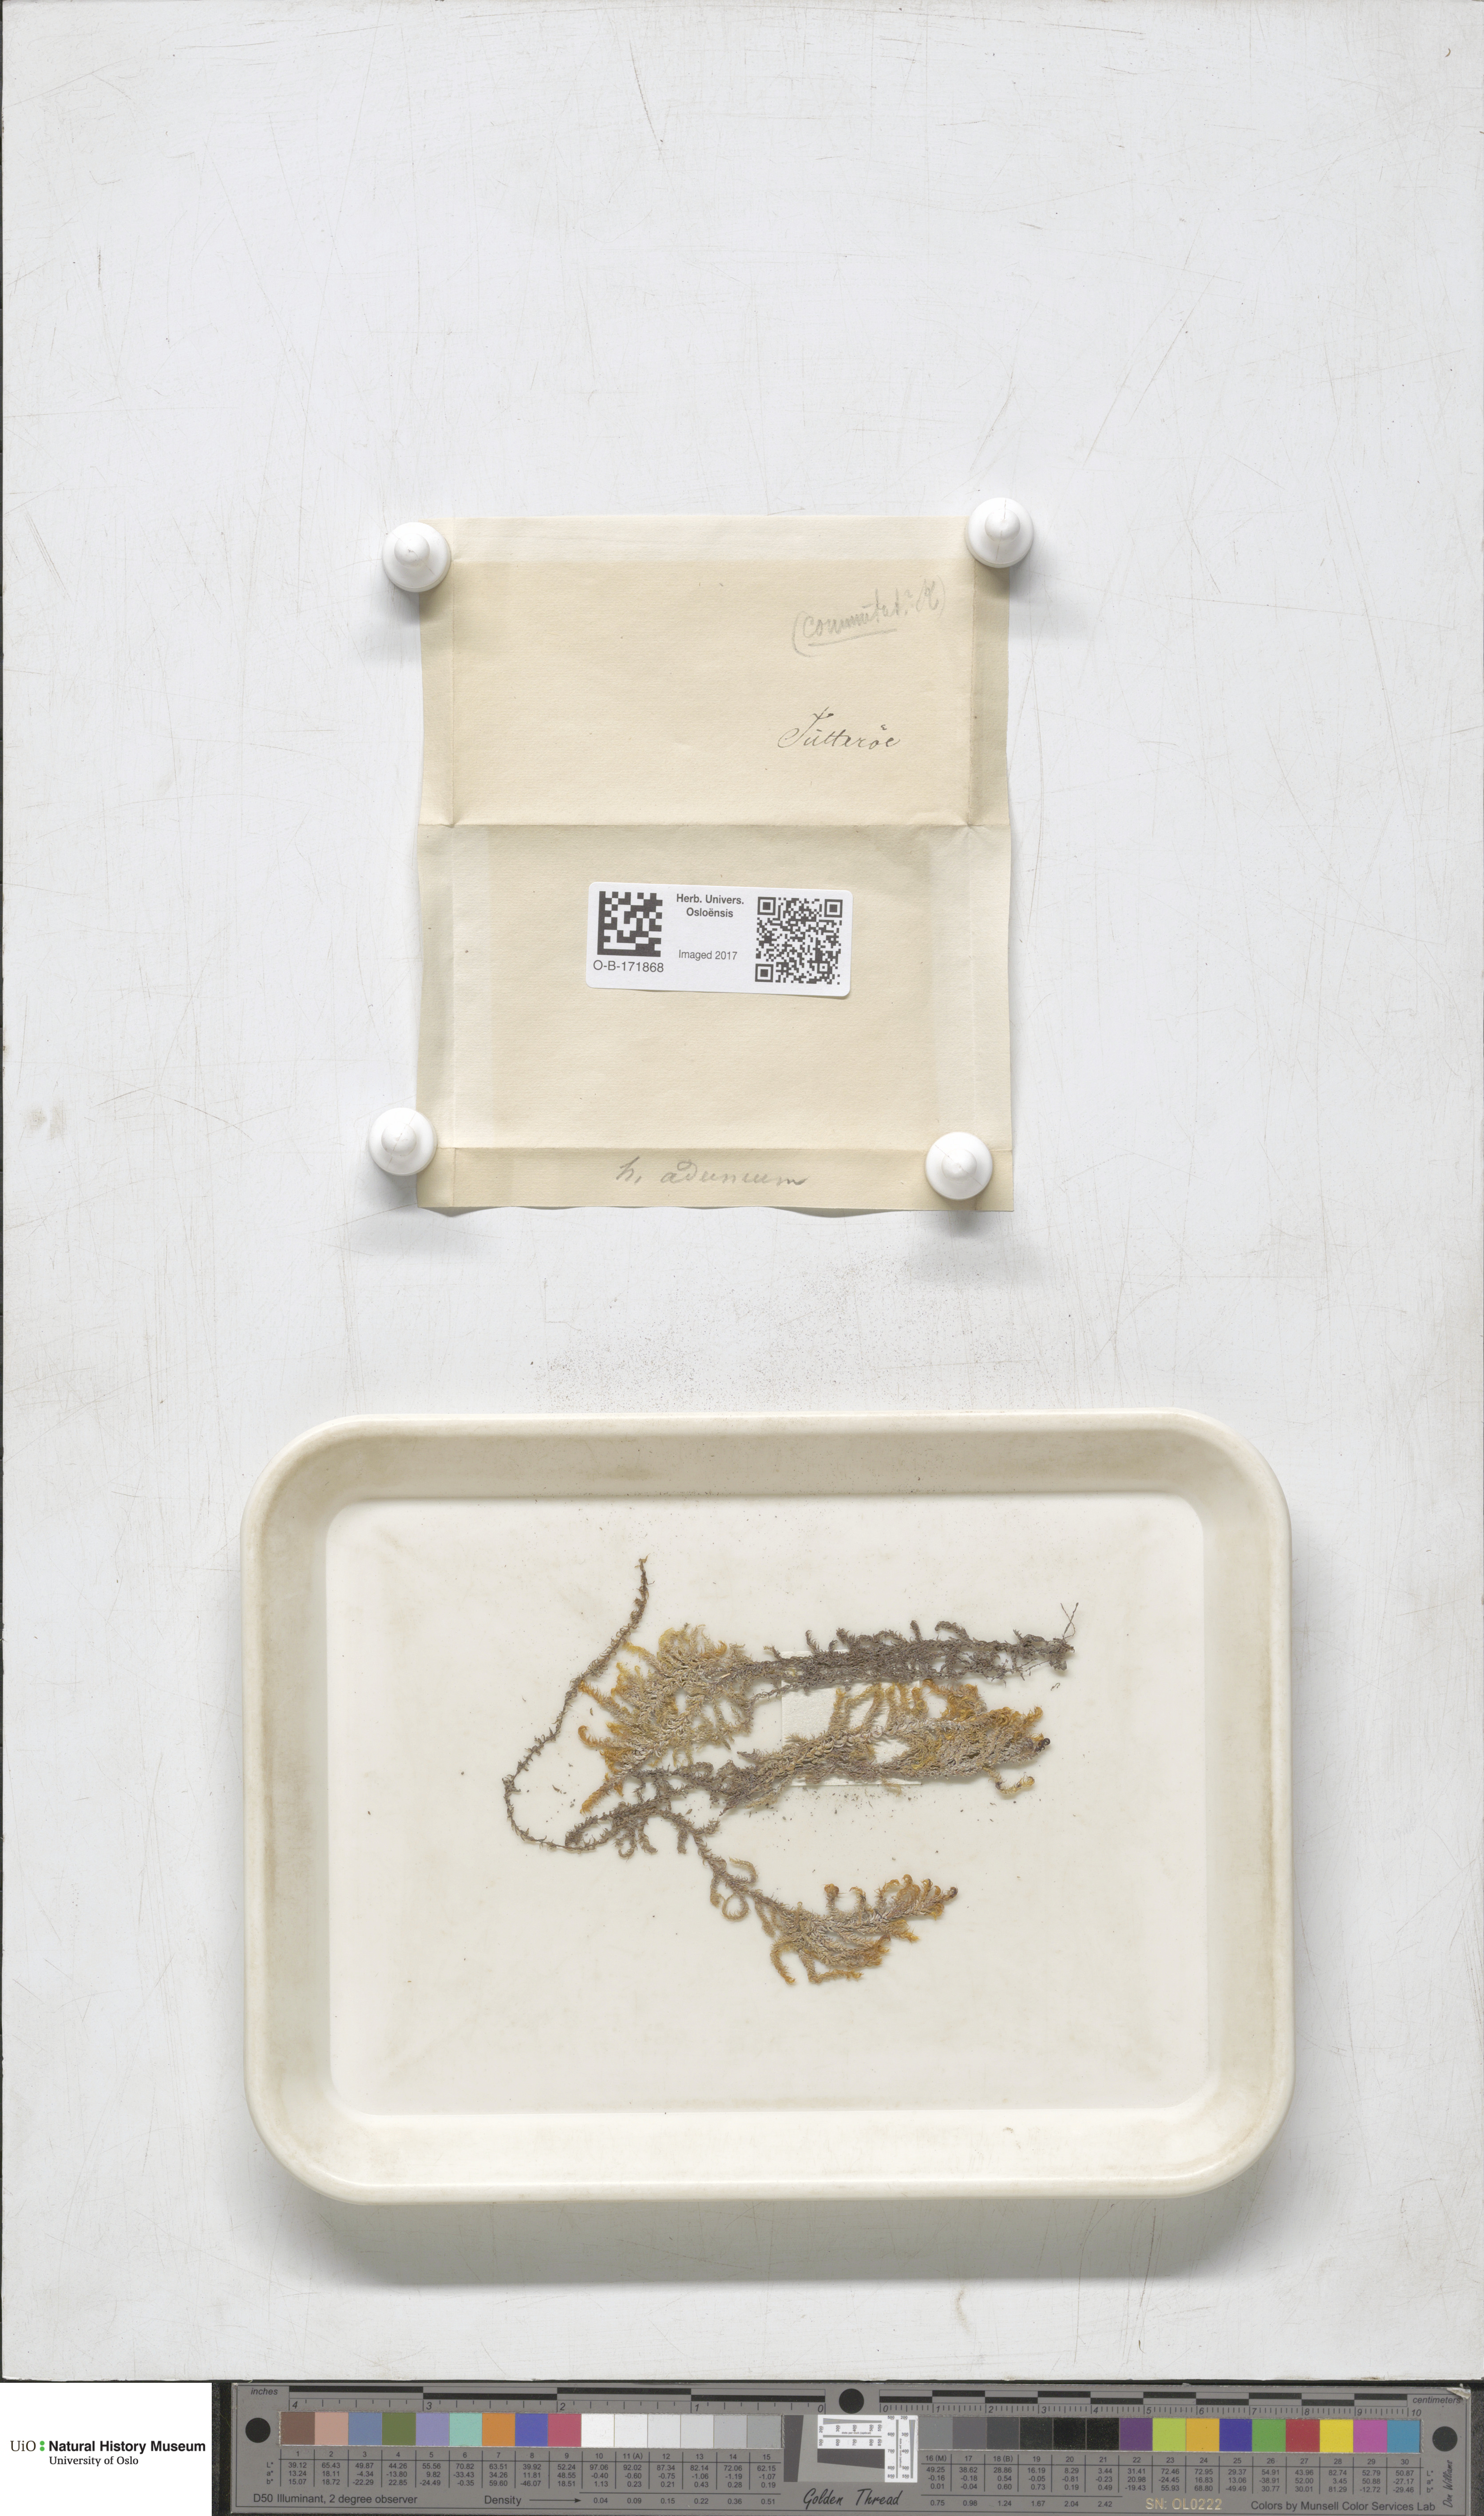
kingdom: Plantae
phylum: Bryophyta
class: Bryopsida
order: Hypnales
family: Amblystegiaceae
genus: Drepanocladus
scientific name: Drepanocladus aduncus
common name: Knieff's hook moss
